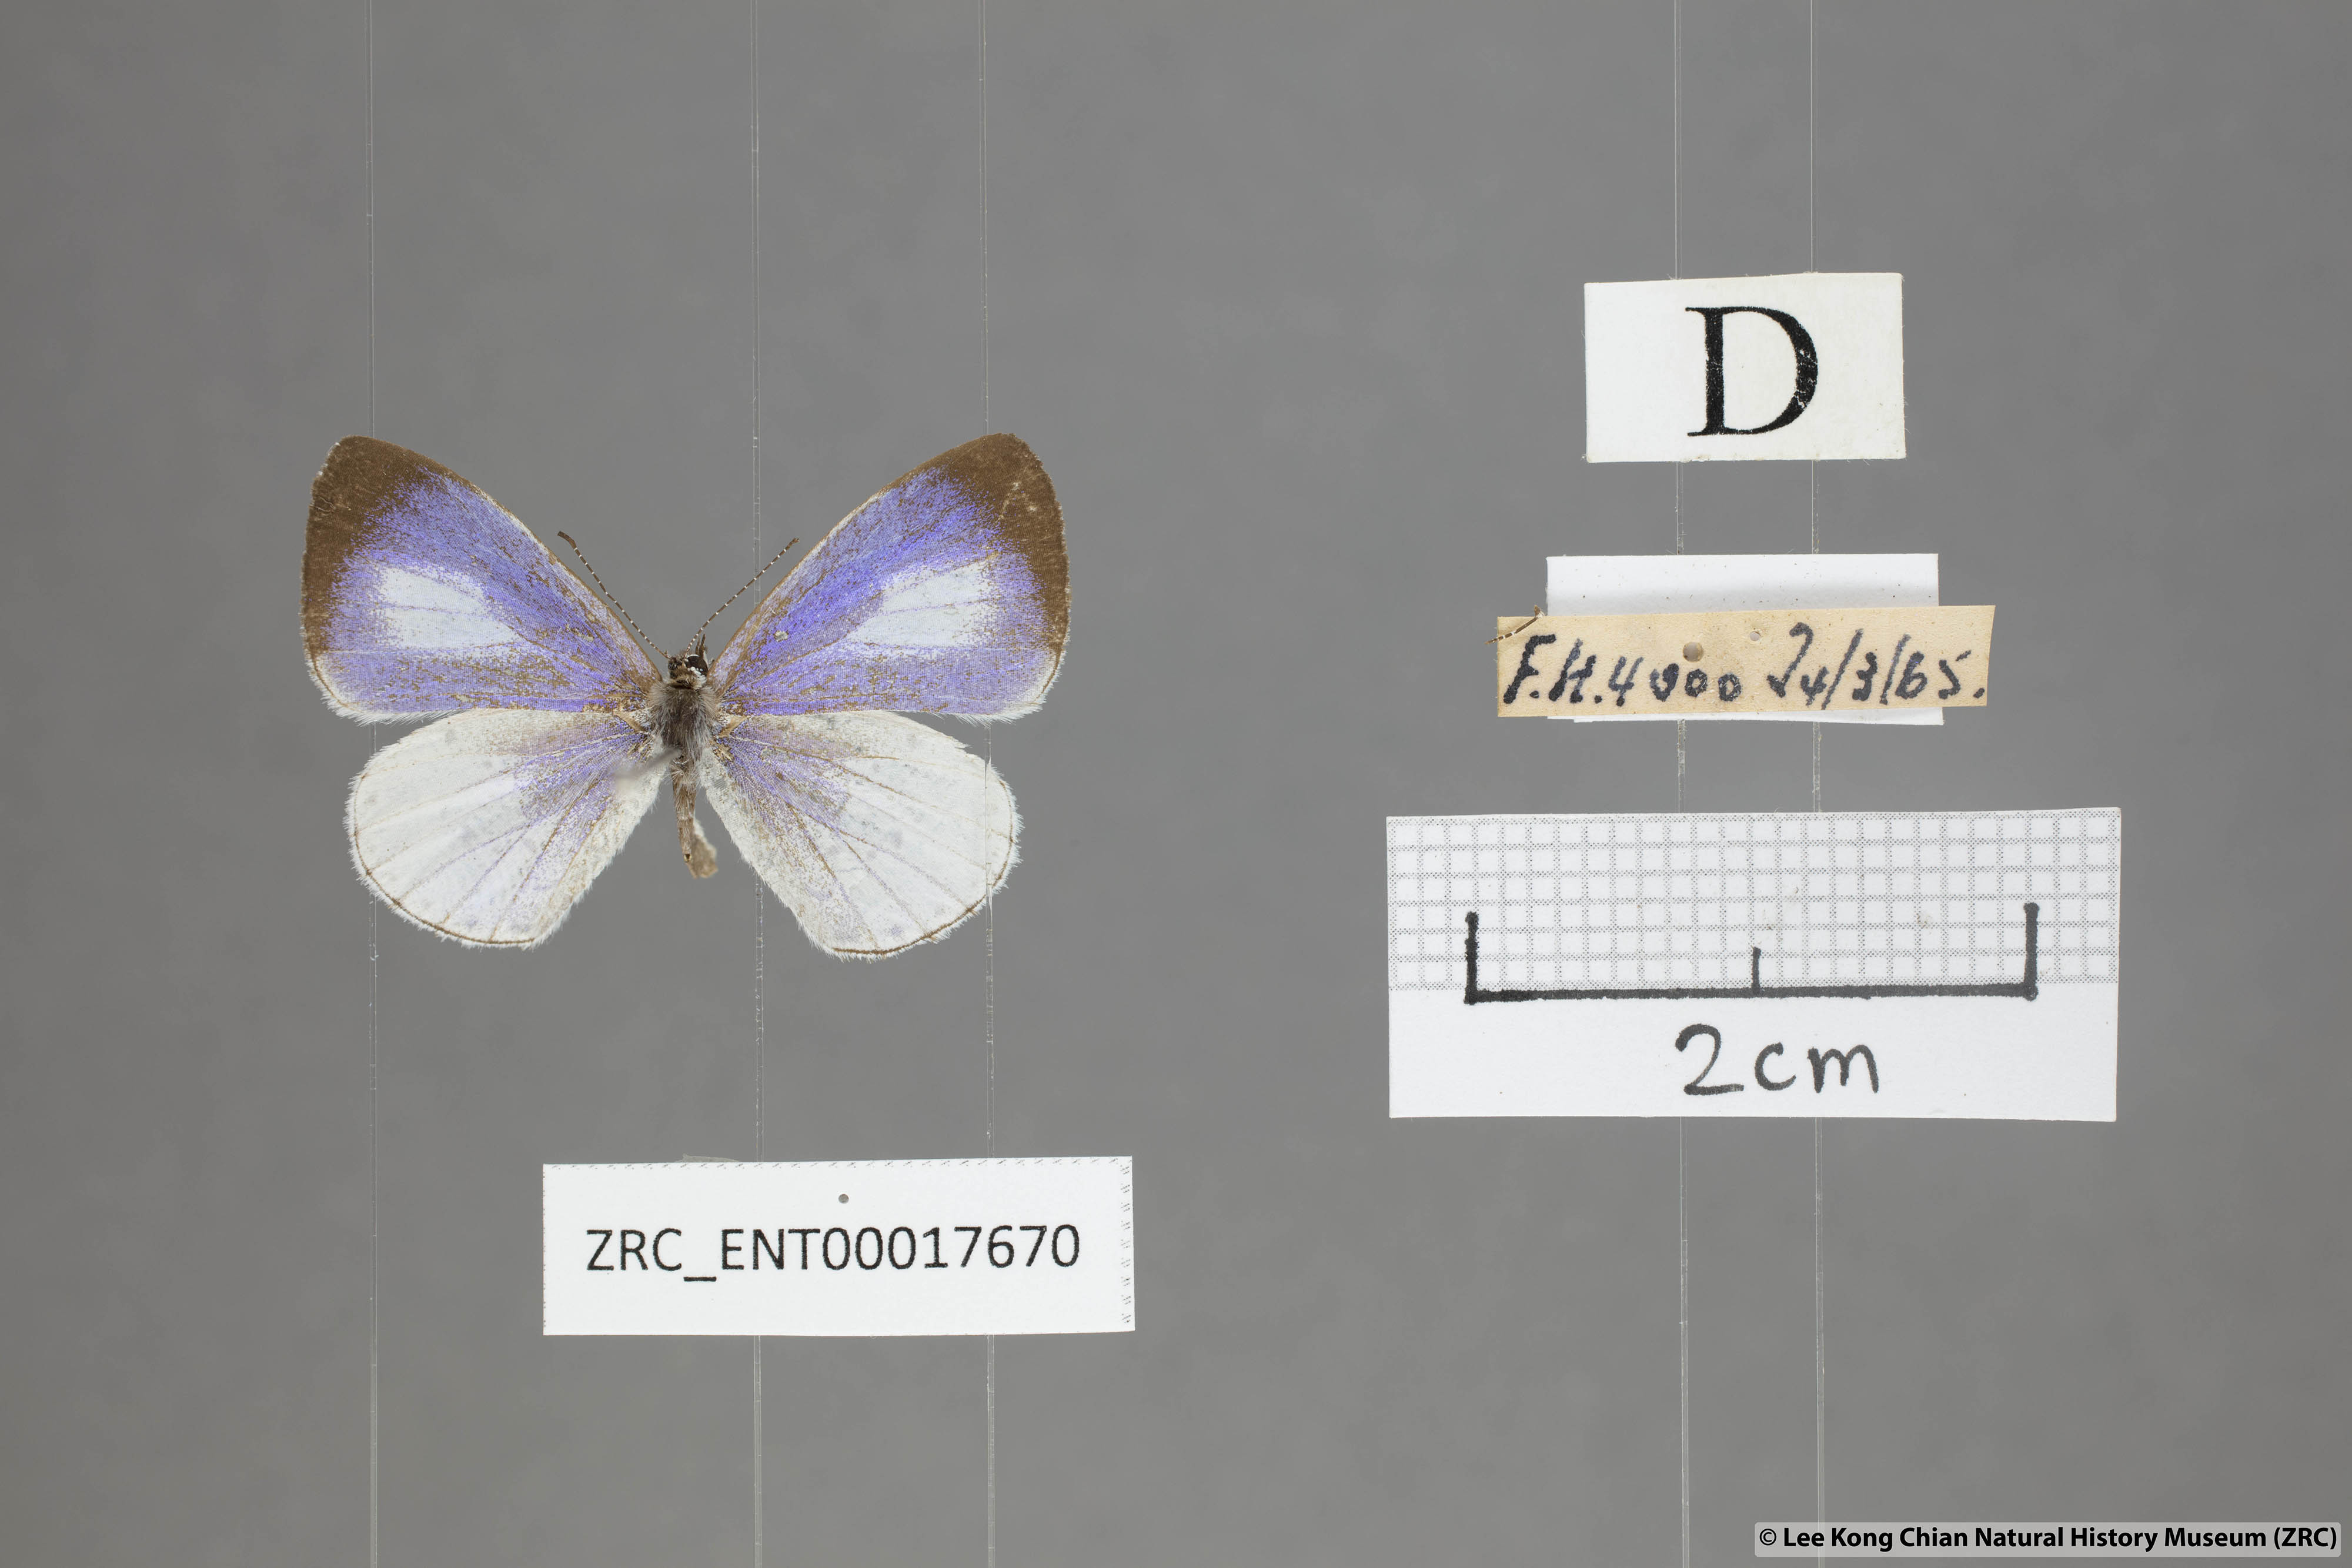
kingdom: Animalia
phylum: Arthropoda
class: Insecta
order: Lepidoptera
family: Lycaenidae
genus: Udara
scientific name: Udara albocaerulea
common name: Albocerulean
